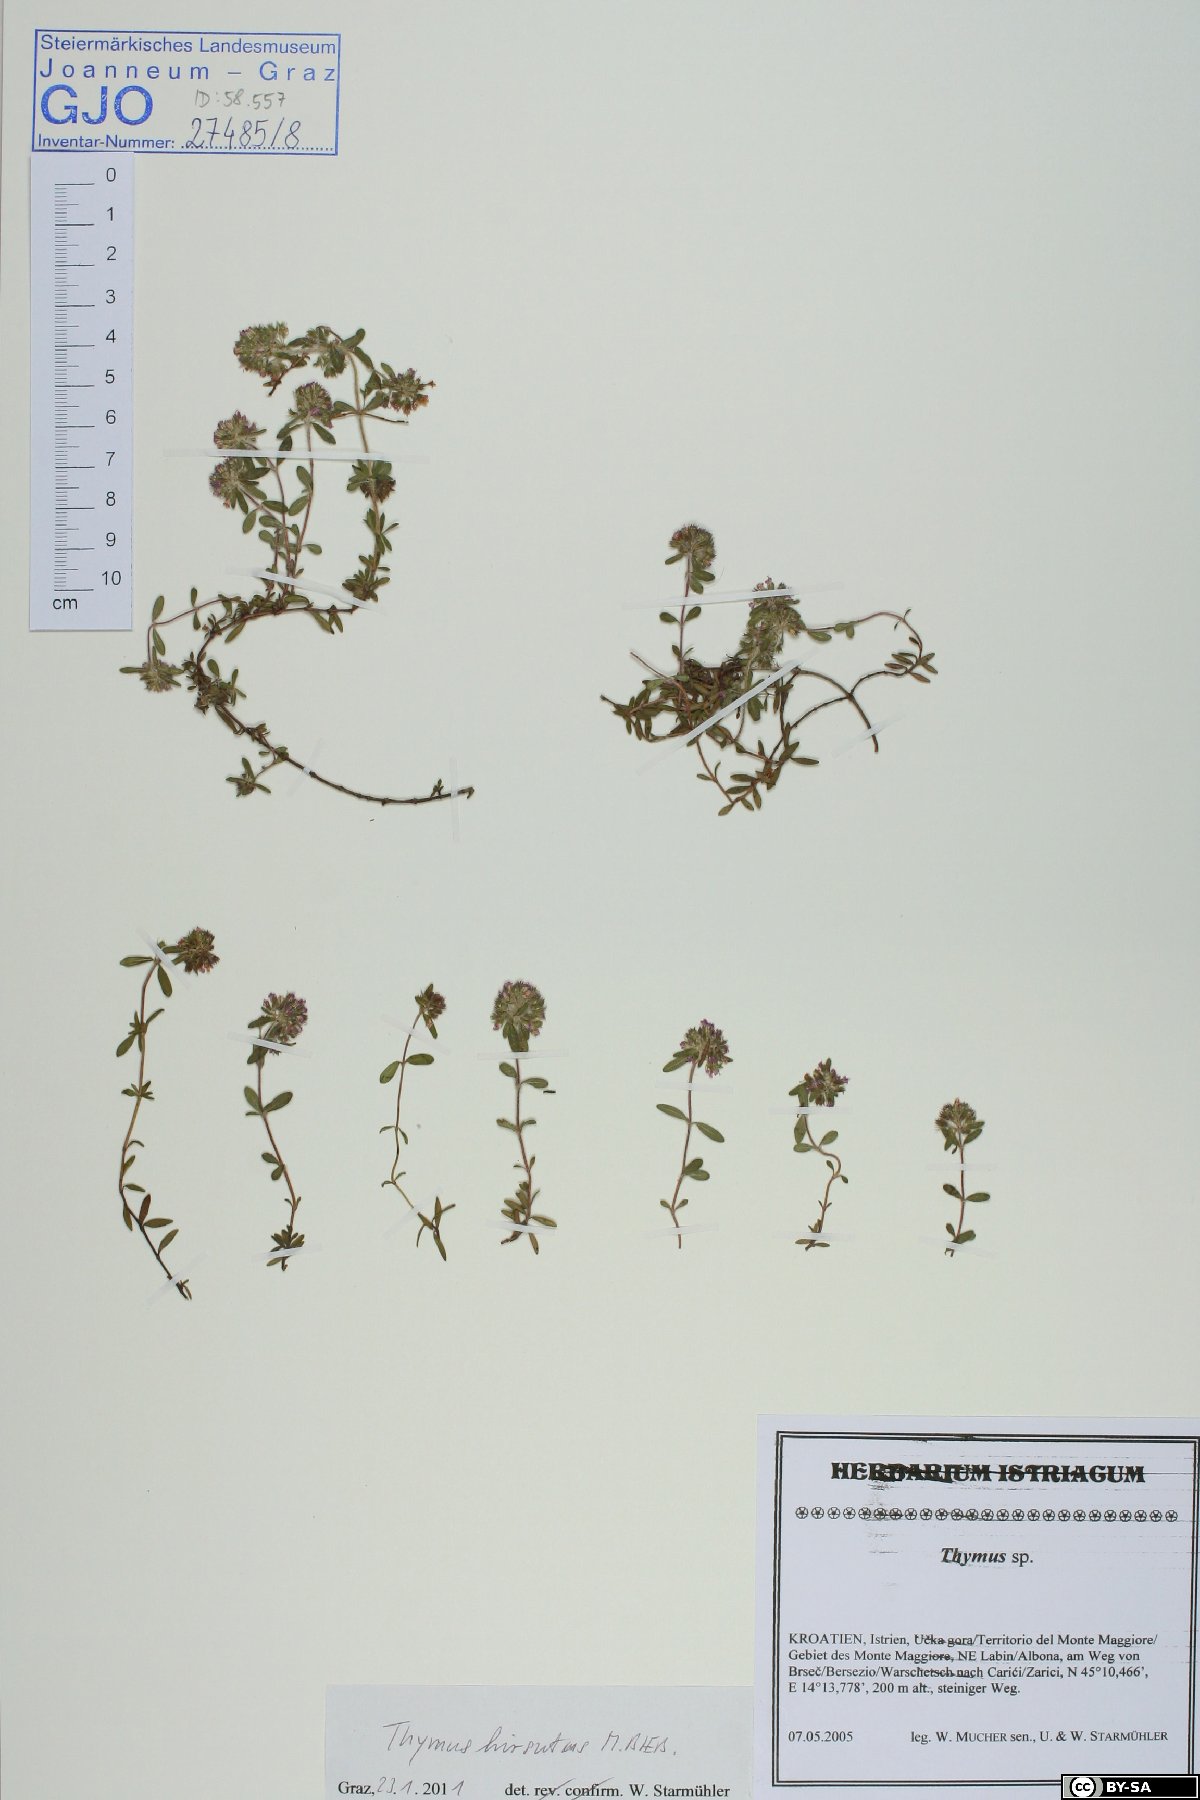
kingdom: Plantae
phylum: Tracheophyta
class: Magnoliopsida
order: Lamiales
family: Lamiaceae
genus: Thymus
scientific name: Thymus pannonicus
